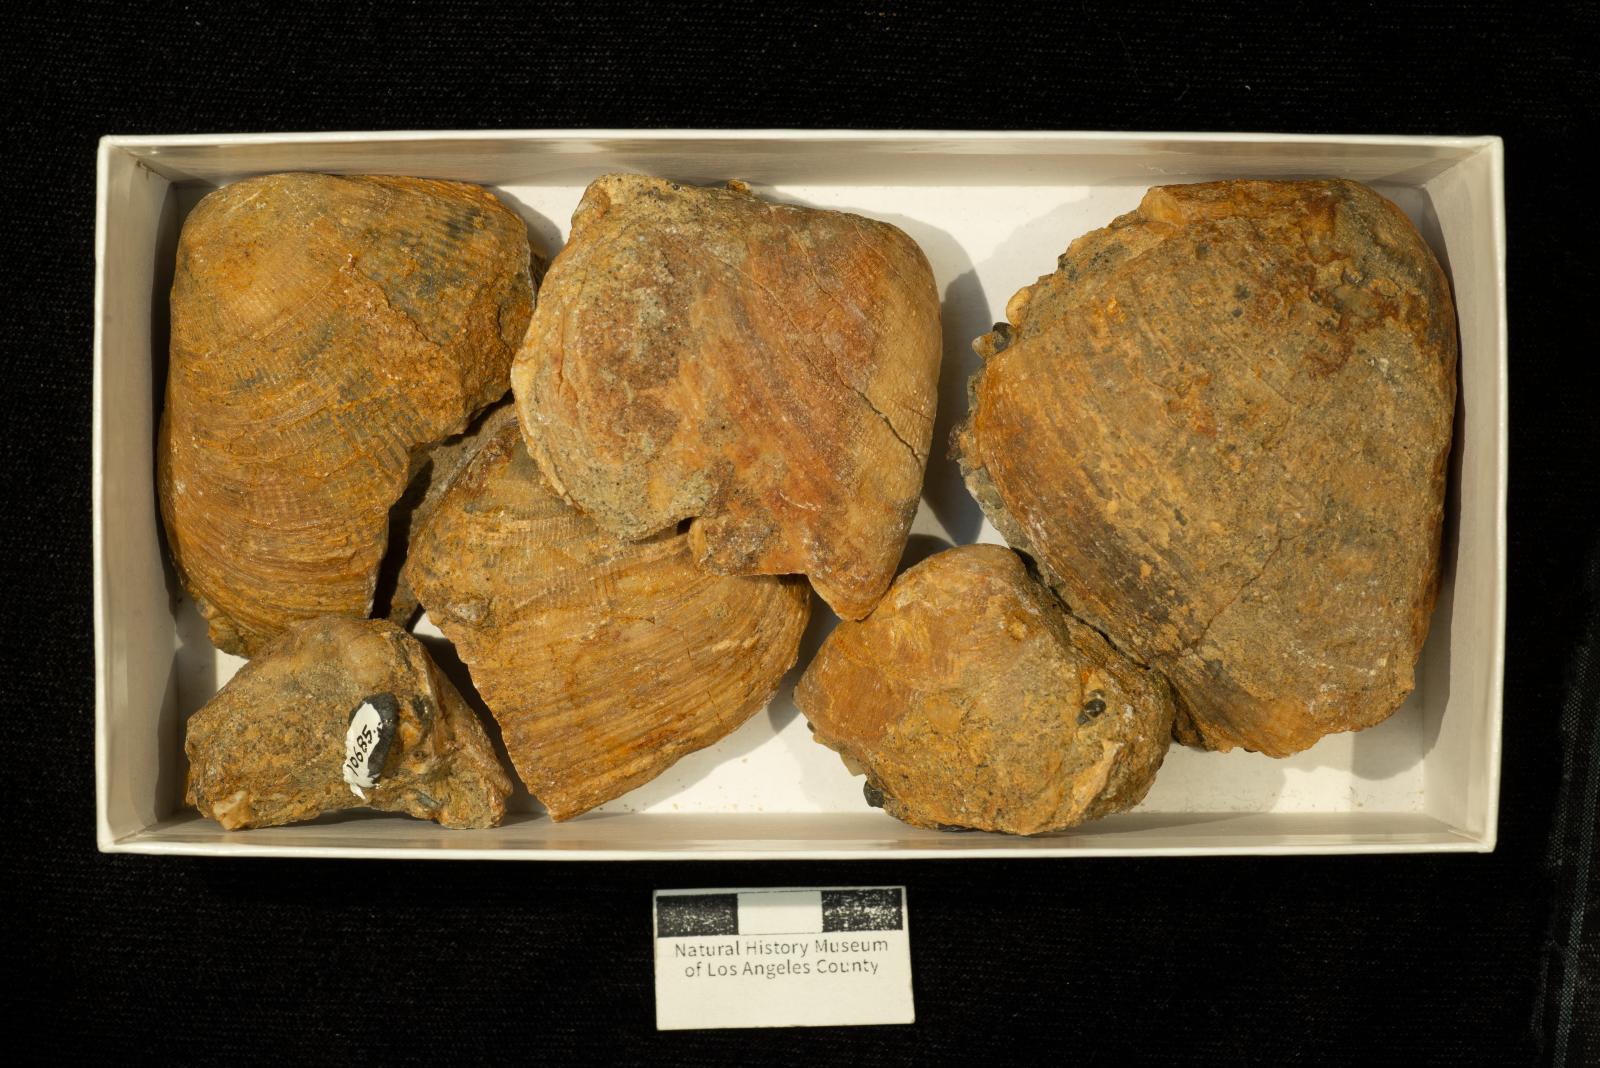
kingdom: Animalia
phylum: Mollusca
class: Bivalvia
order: Carditida
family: Crassatellidae
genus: Crassatella
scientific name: Crassatella mercedensis
